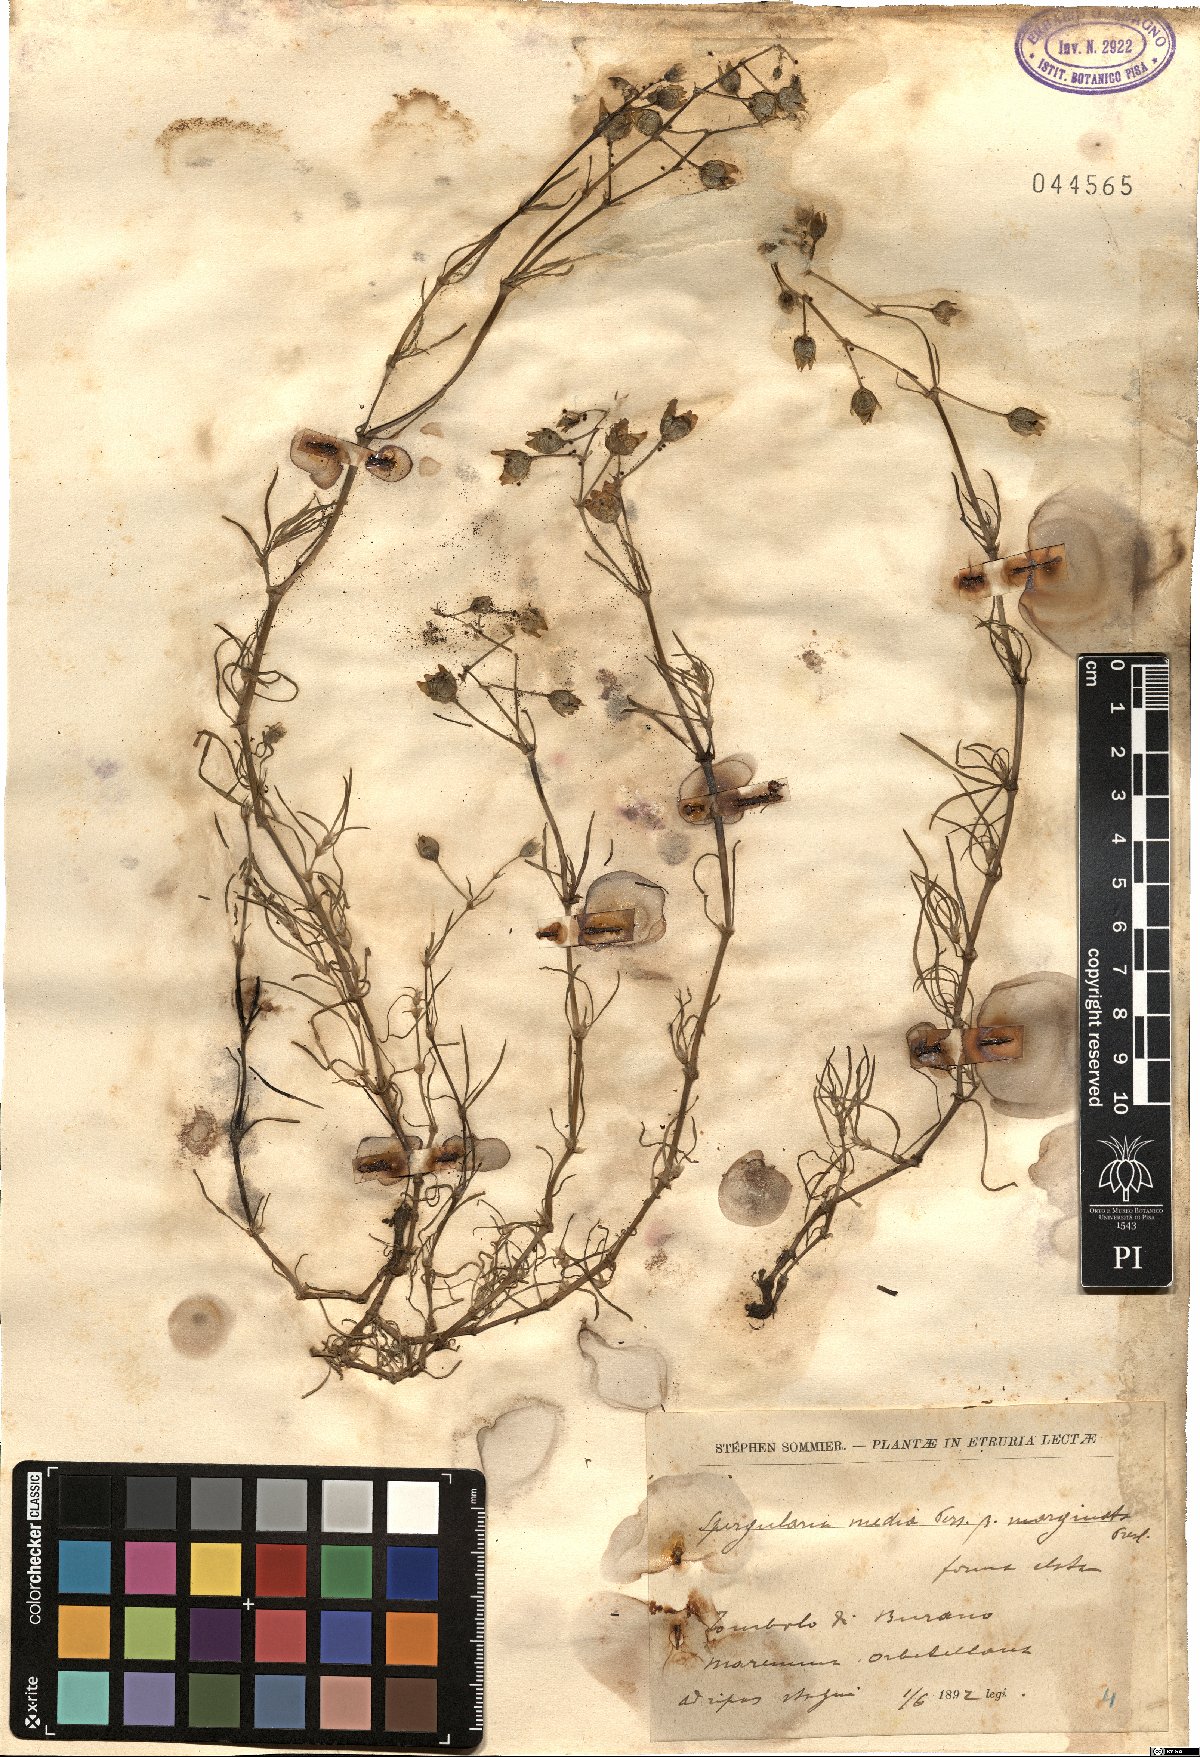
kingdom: Plantae
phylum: Tracheophyta
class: Magnoliopsida
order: Caryophyllales
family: Caryophyllaceae
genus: Spergularia
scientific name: Spergularia media
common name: Greater sea-spurrey
